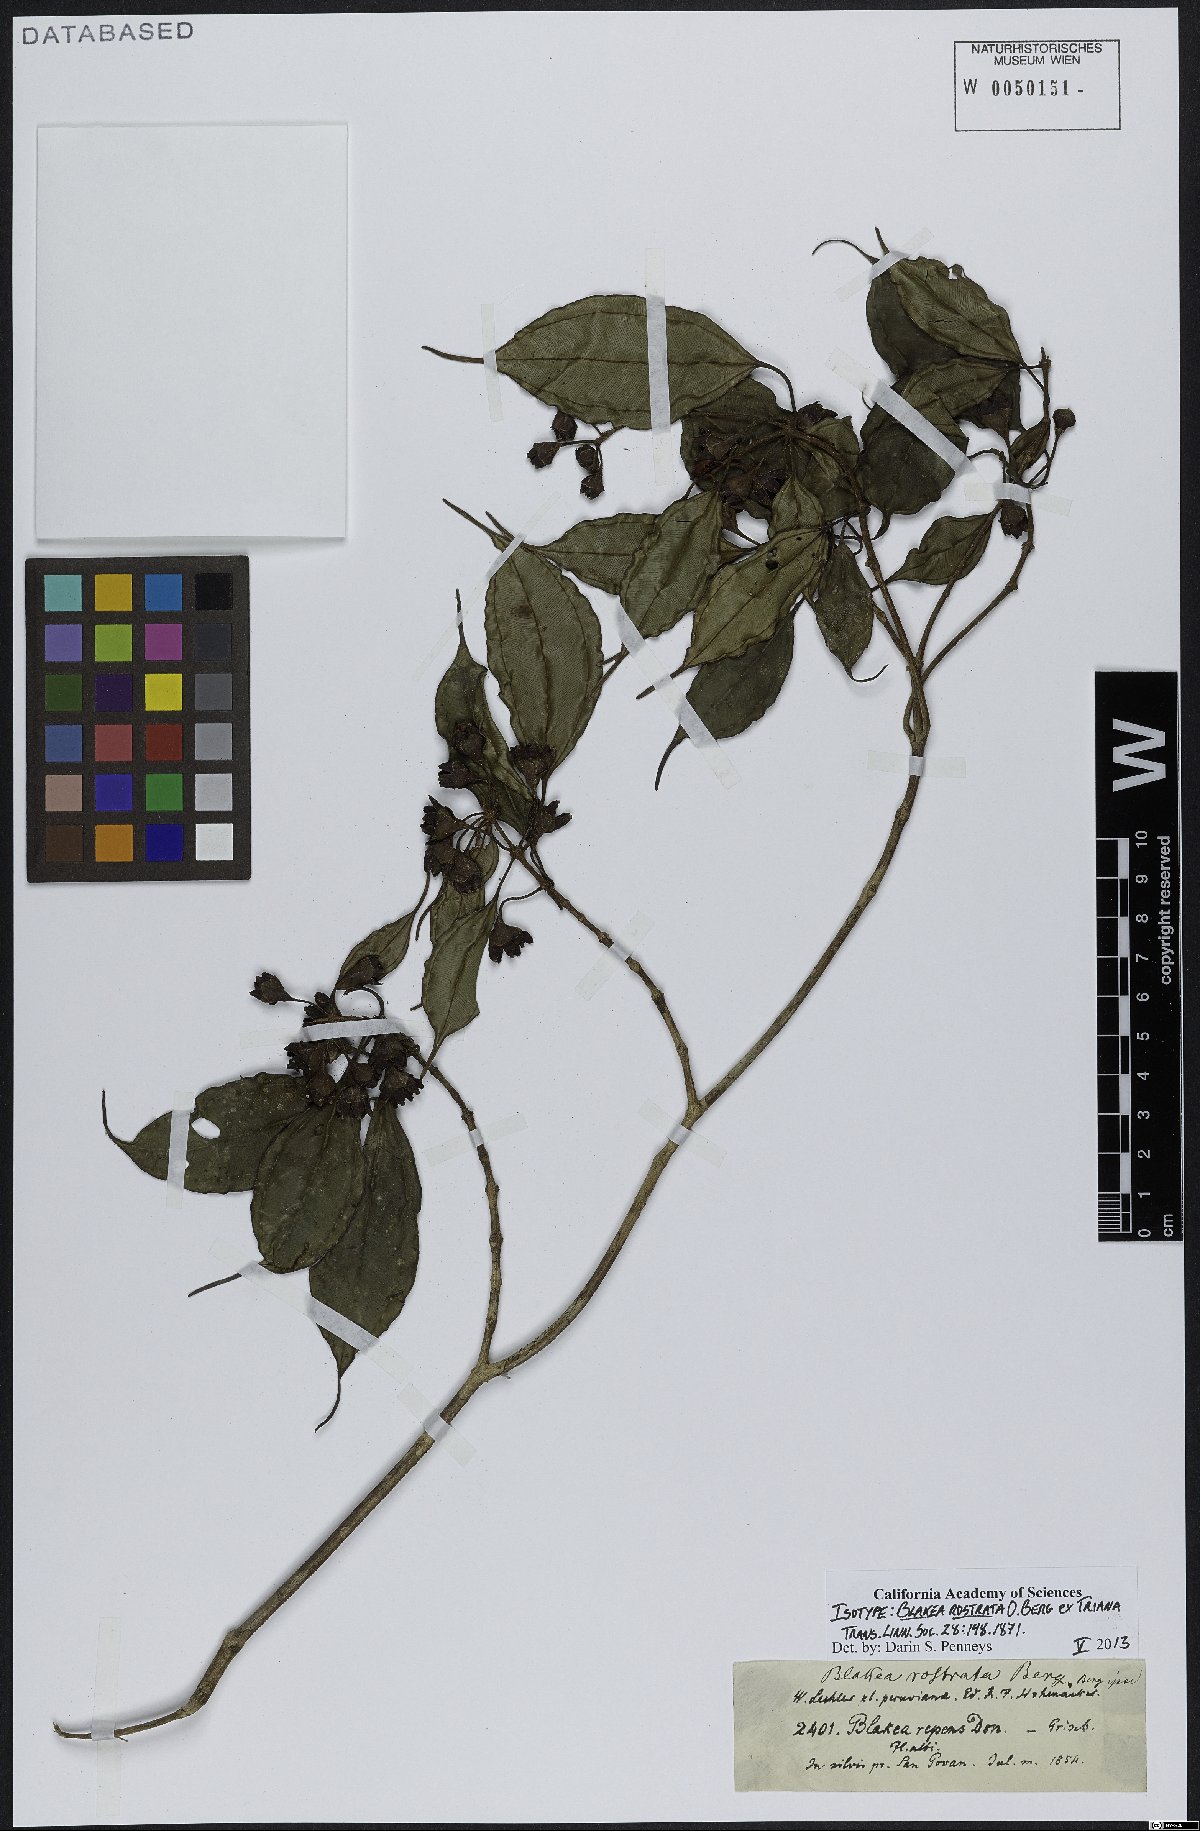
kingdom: Plantae
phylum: Tracheophyta
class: Magnoliopsida
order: Myrtales
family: Melastomataceae
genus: Blakea
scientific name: Blakea rostrata
